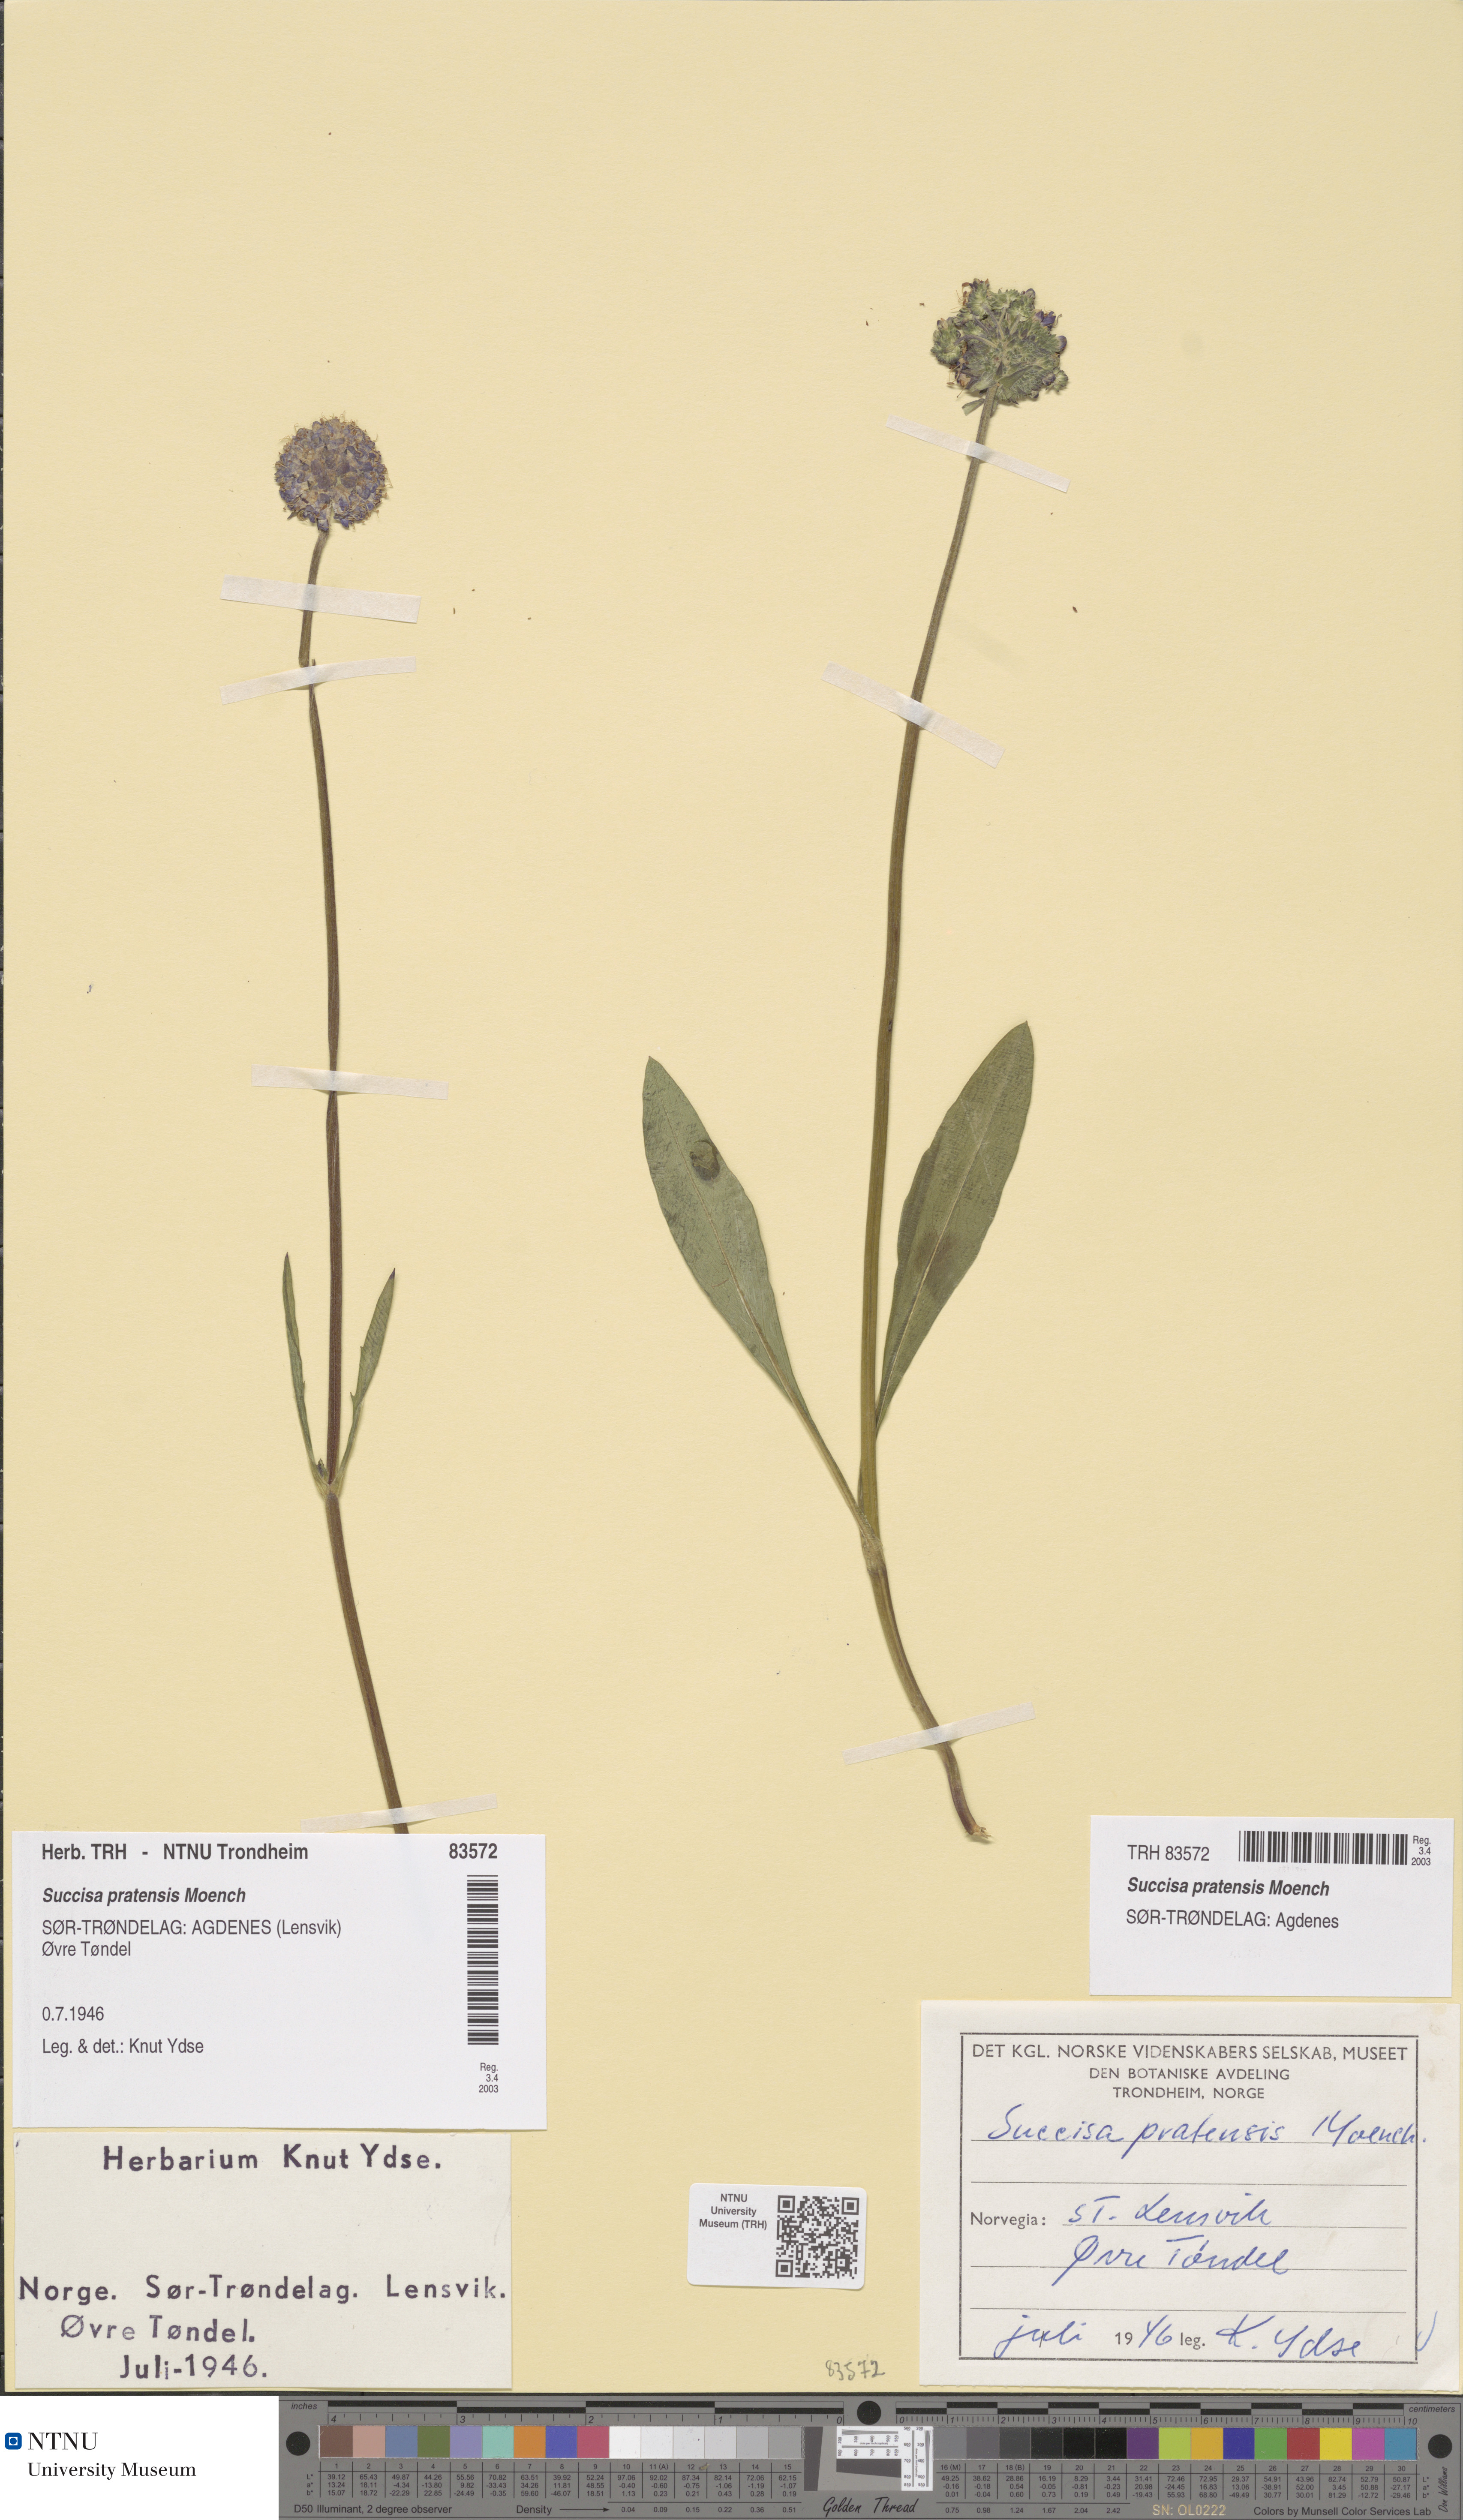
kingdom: Plantae
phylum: Tracheophyta
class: Magnoliopsida
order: Dipsacales
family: Caprifoliaceae
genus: Succisa
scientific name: Succisa pratensis
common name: Devil's-bit
